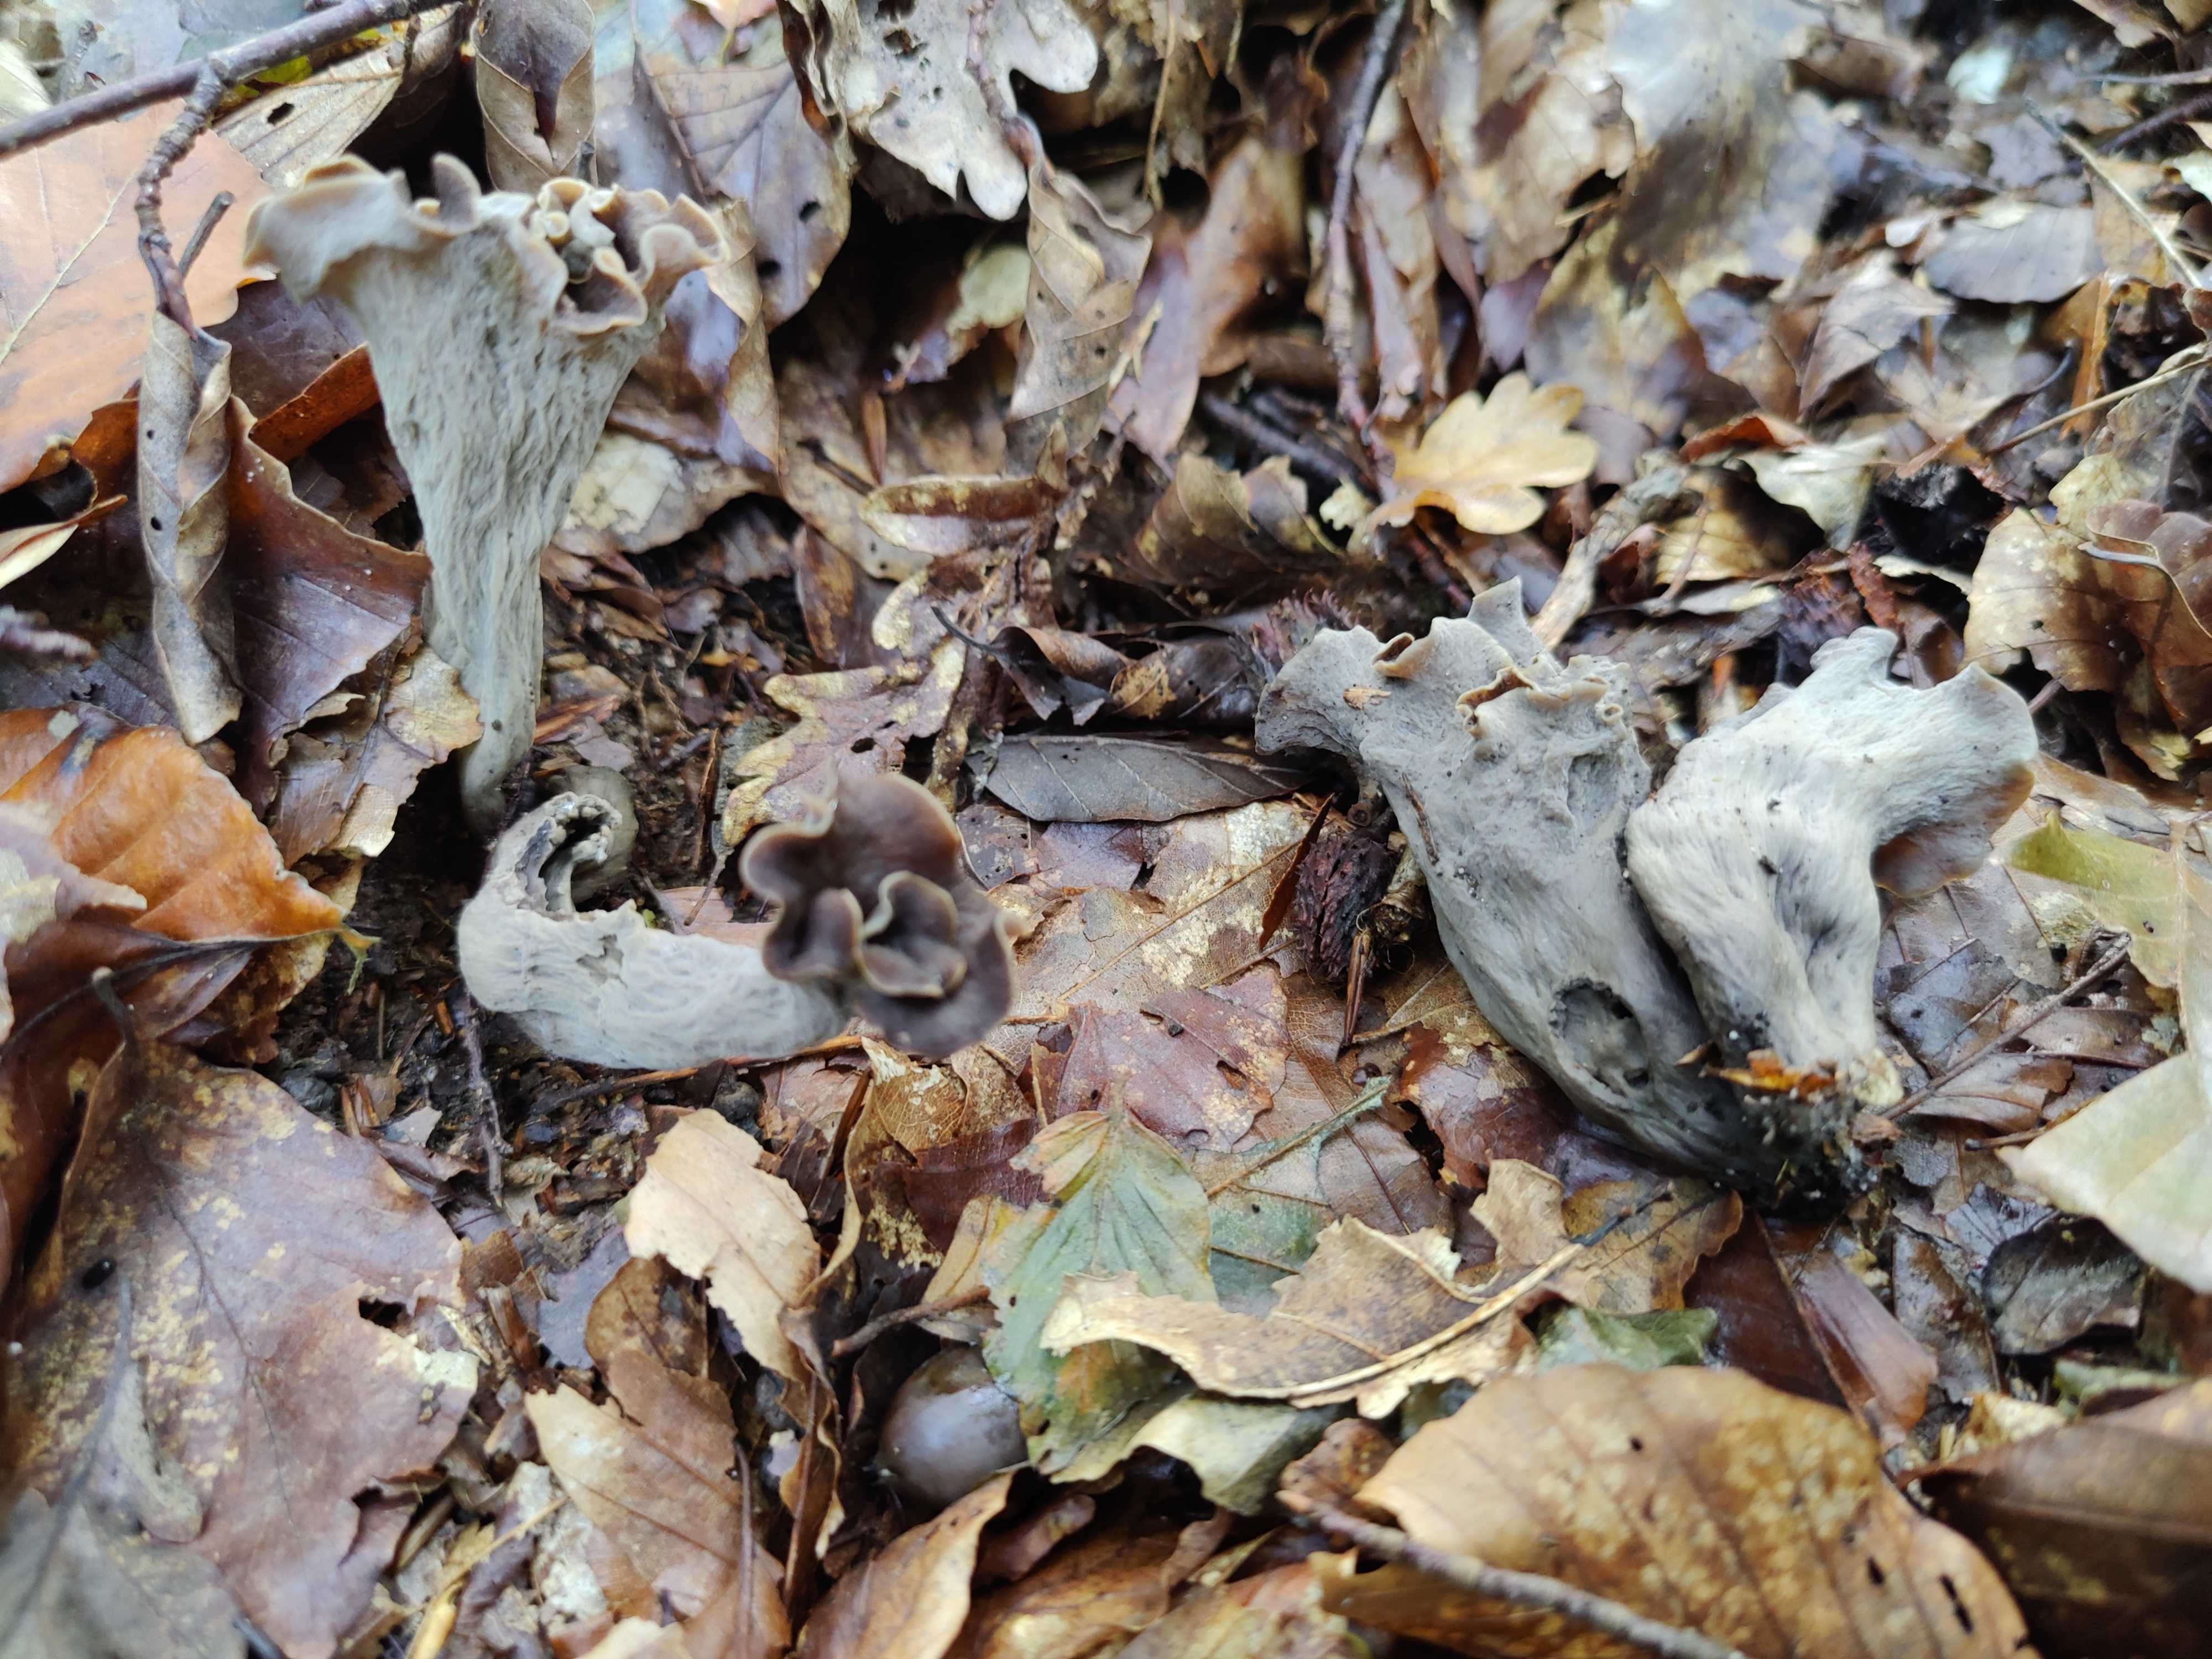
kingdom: Fungi
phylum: Basidiomycota
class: Agaricomycetes
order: Cantharellales
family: Hydnaceae
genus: Craterellus
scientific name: Craterellus cornucopioides
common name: trompetsvamp
